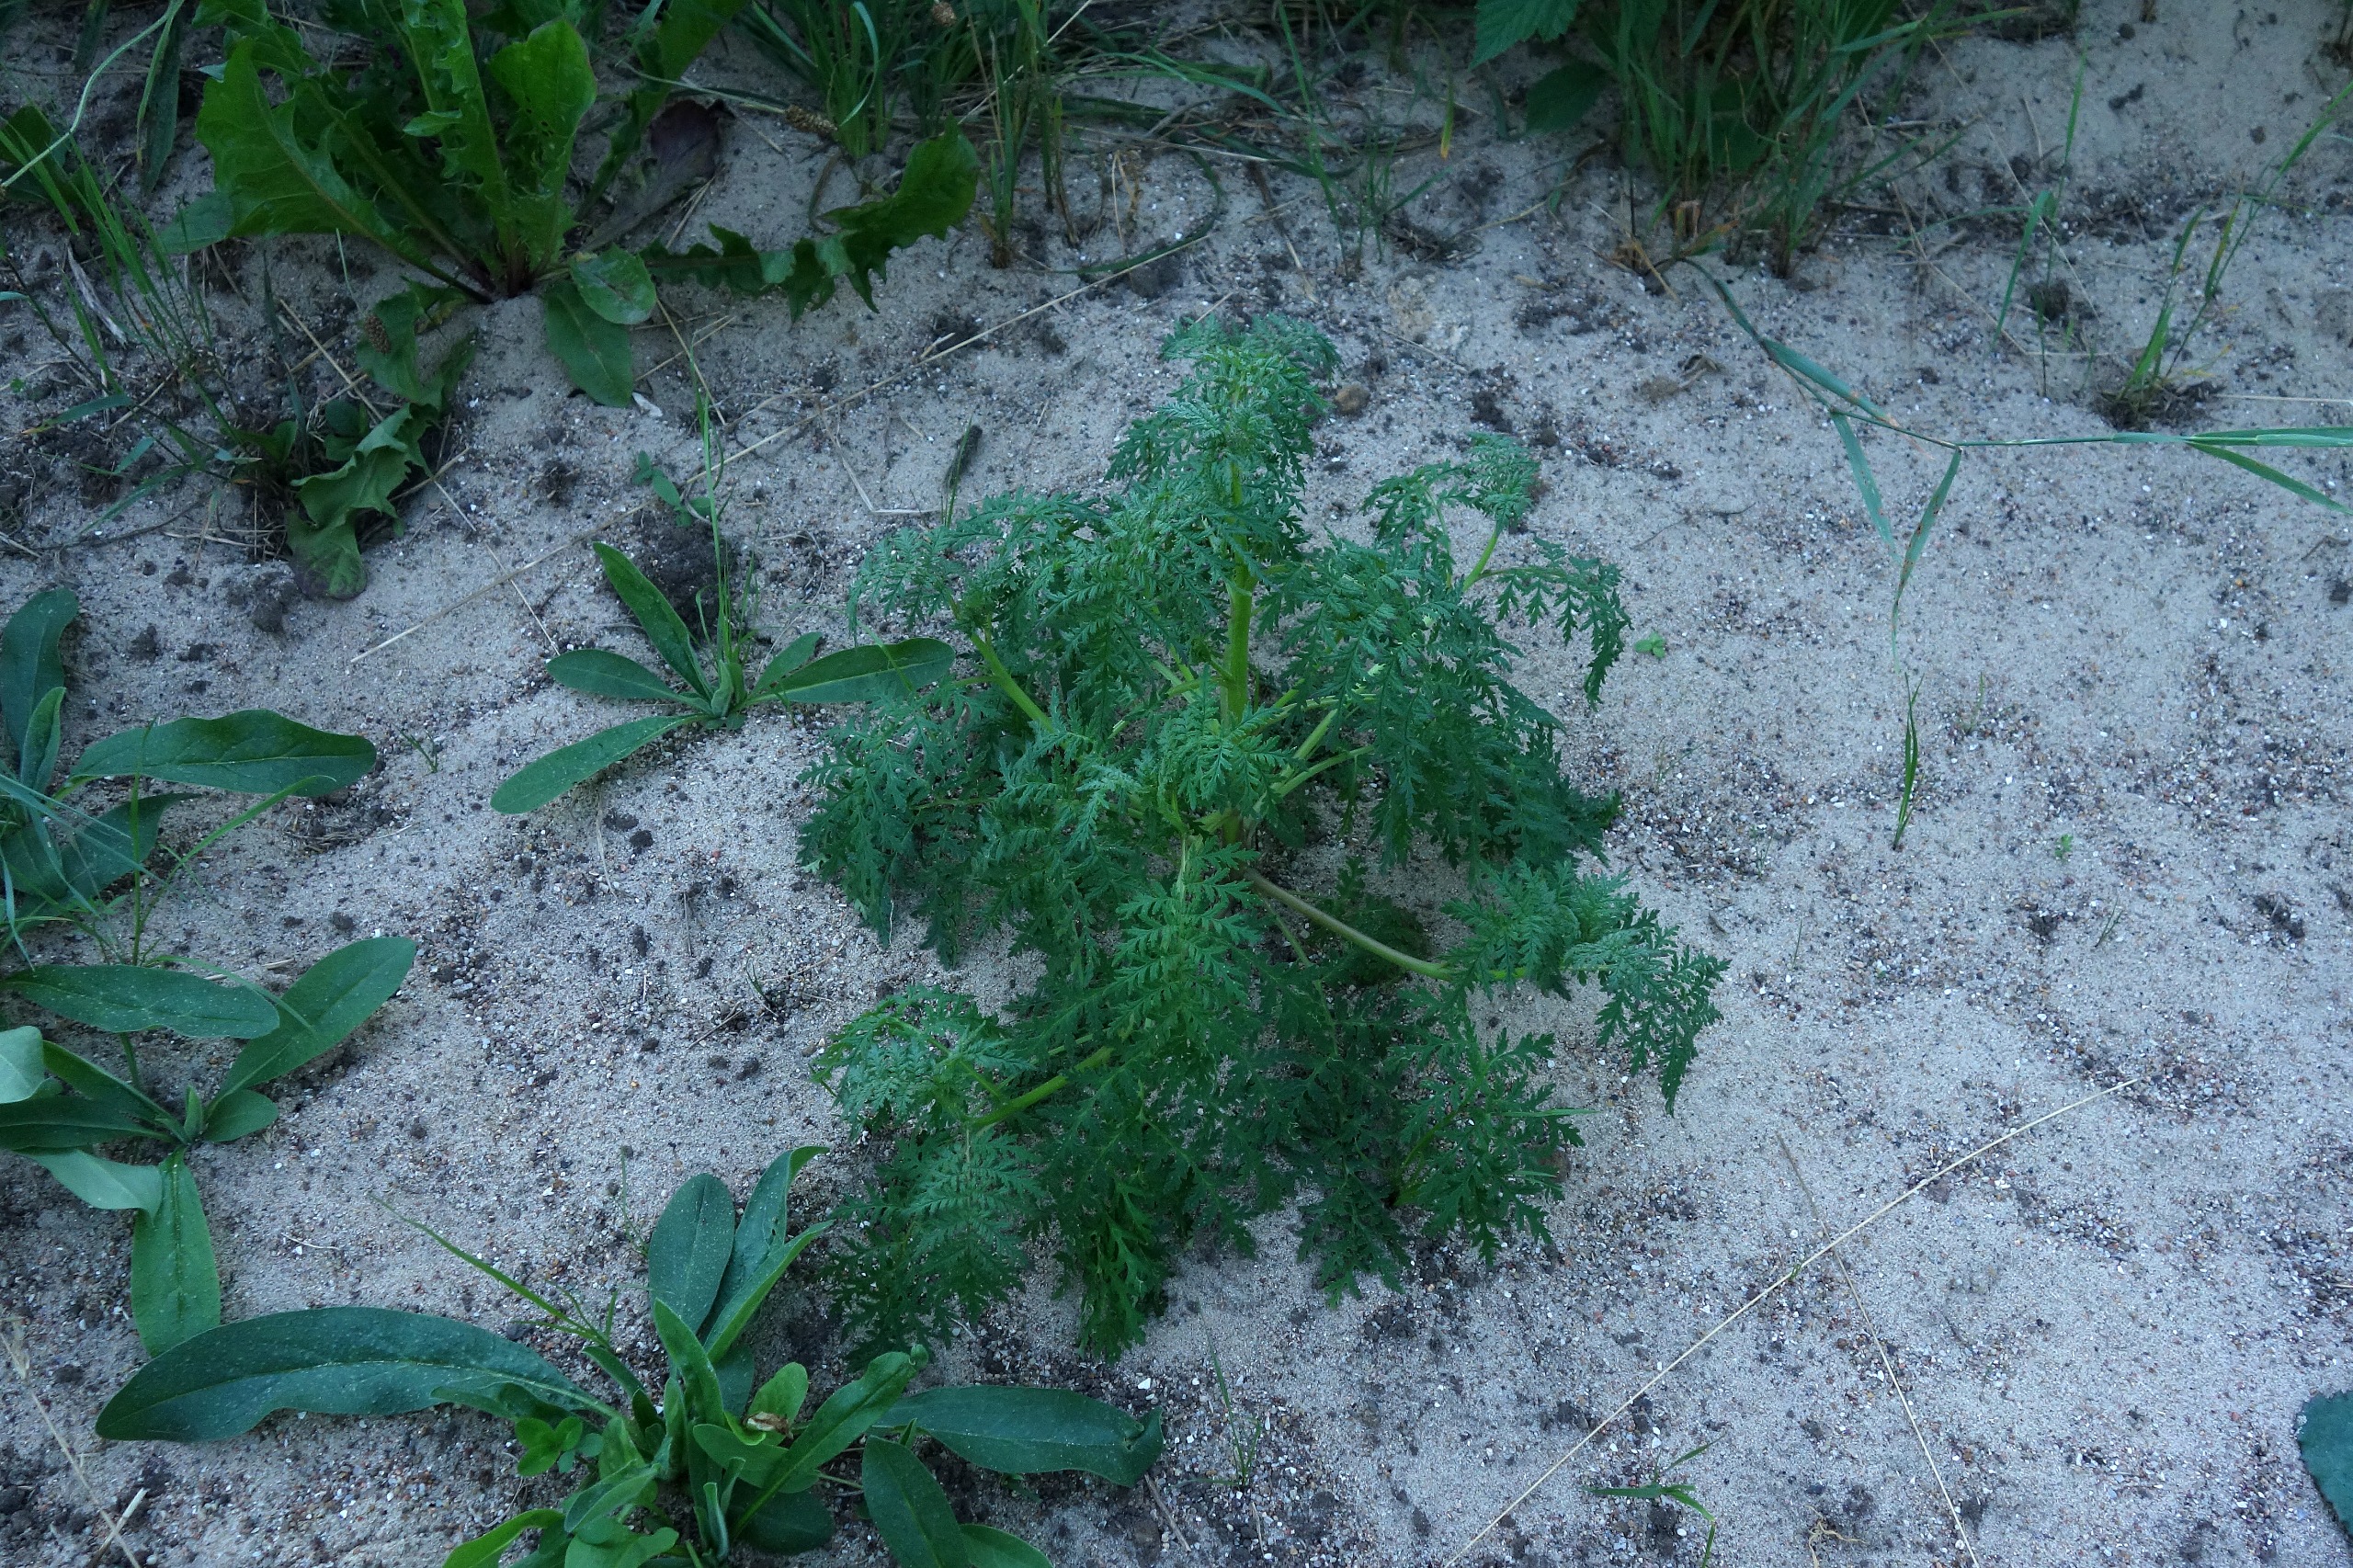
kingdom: Plantae
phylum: Tracheophyta
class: Magnoliopsida
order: Boraginales
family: Hydrophyllaceae
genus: Phacelia
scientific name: Phacelia tanacetifolia
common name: Honningurt
